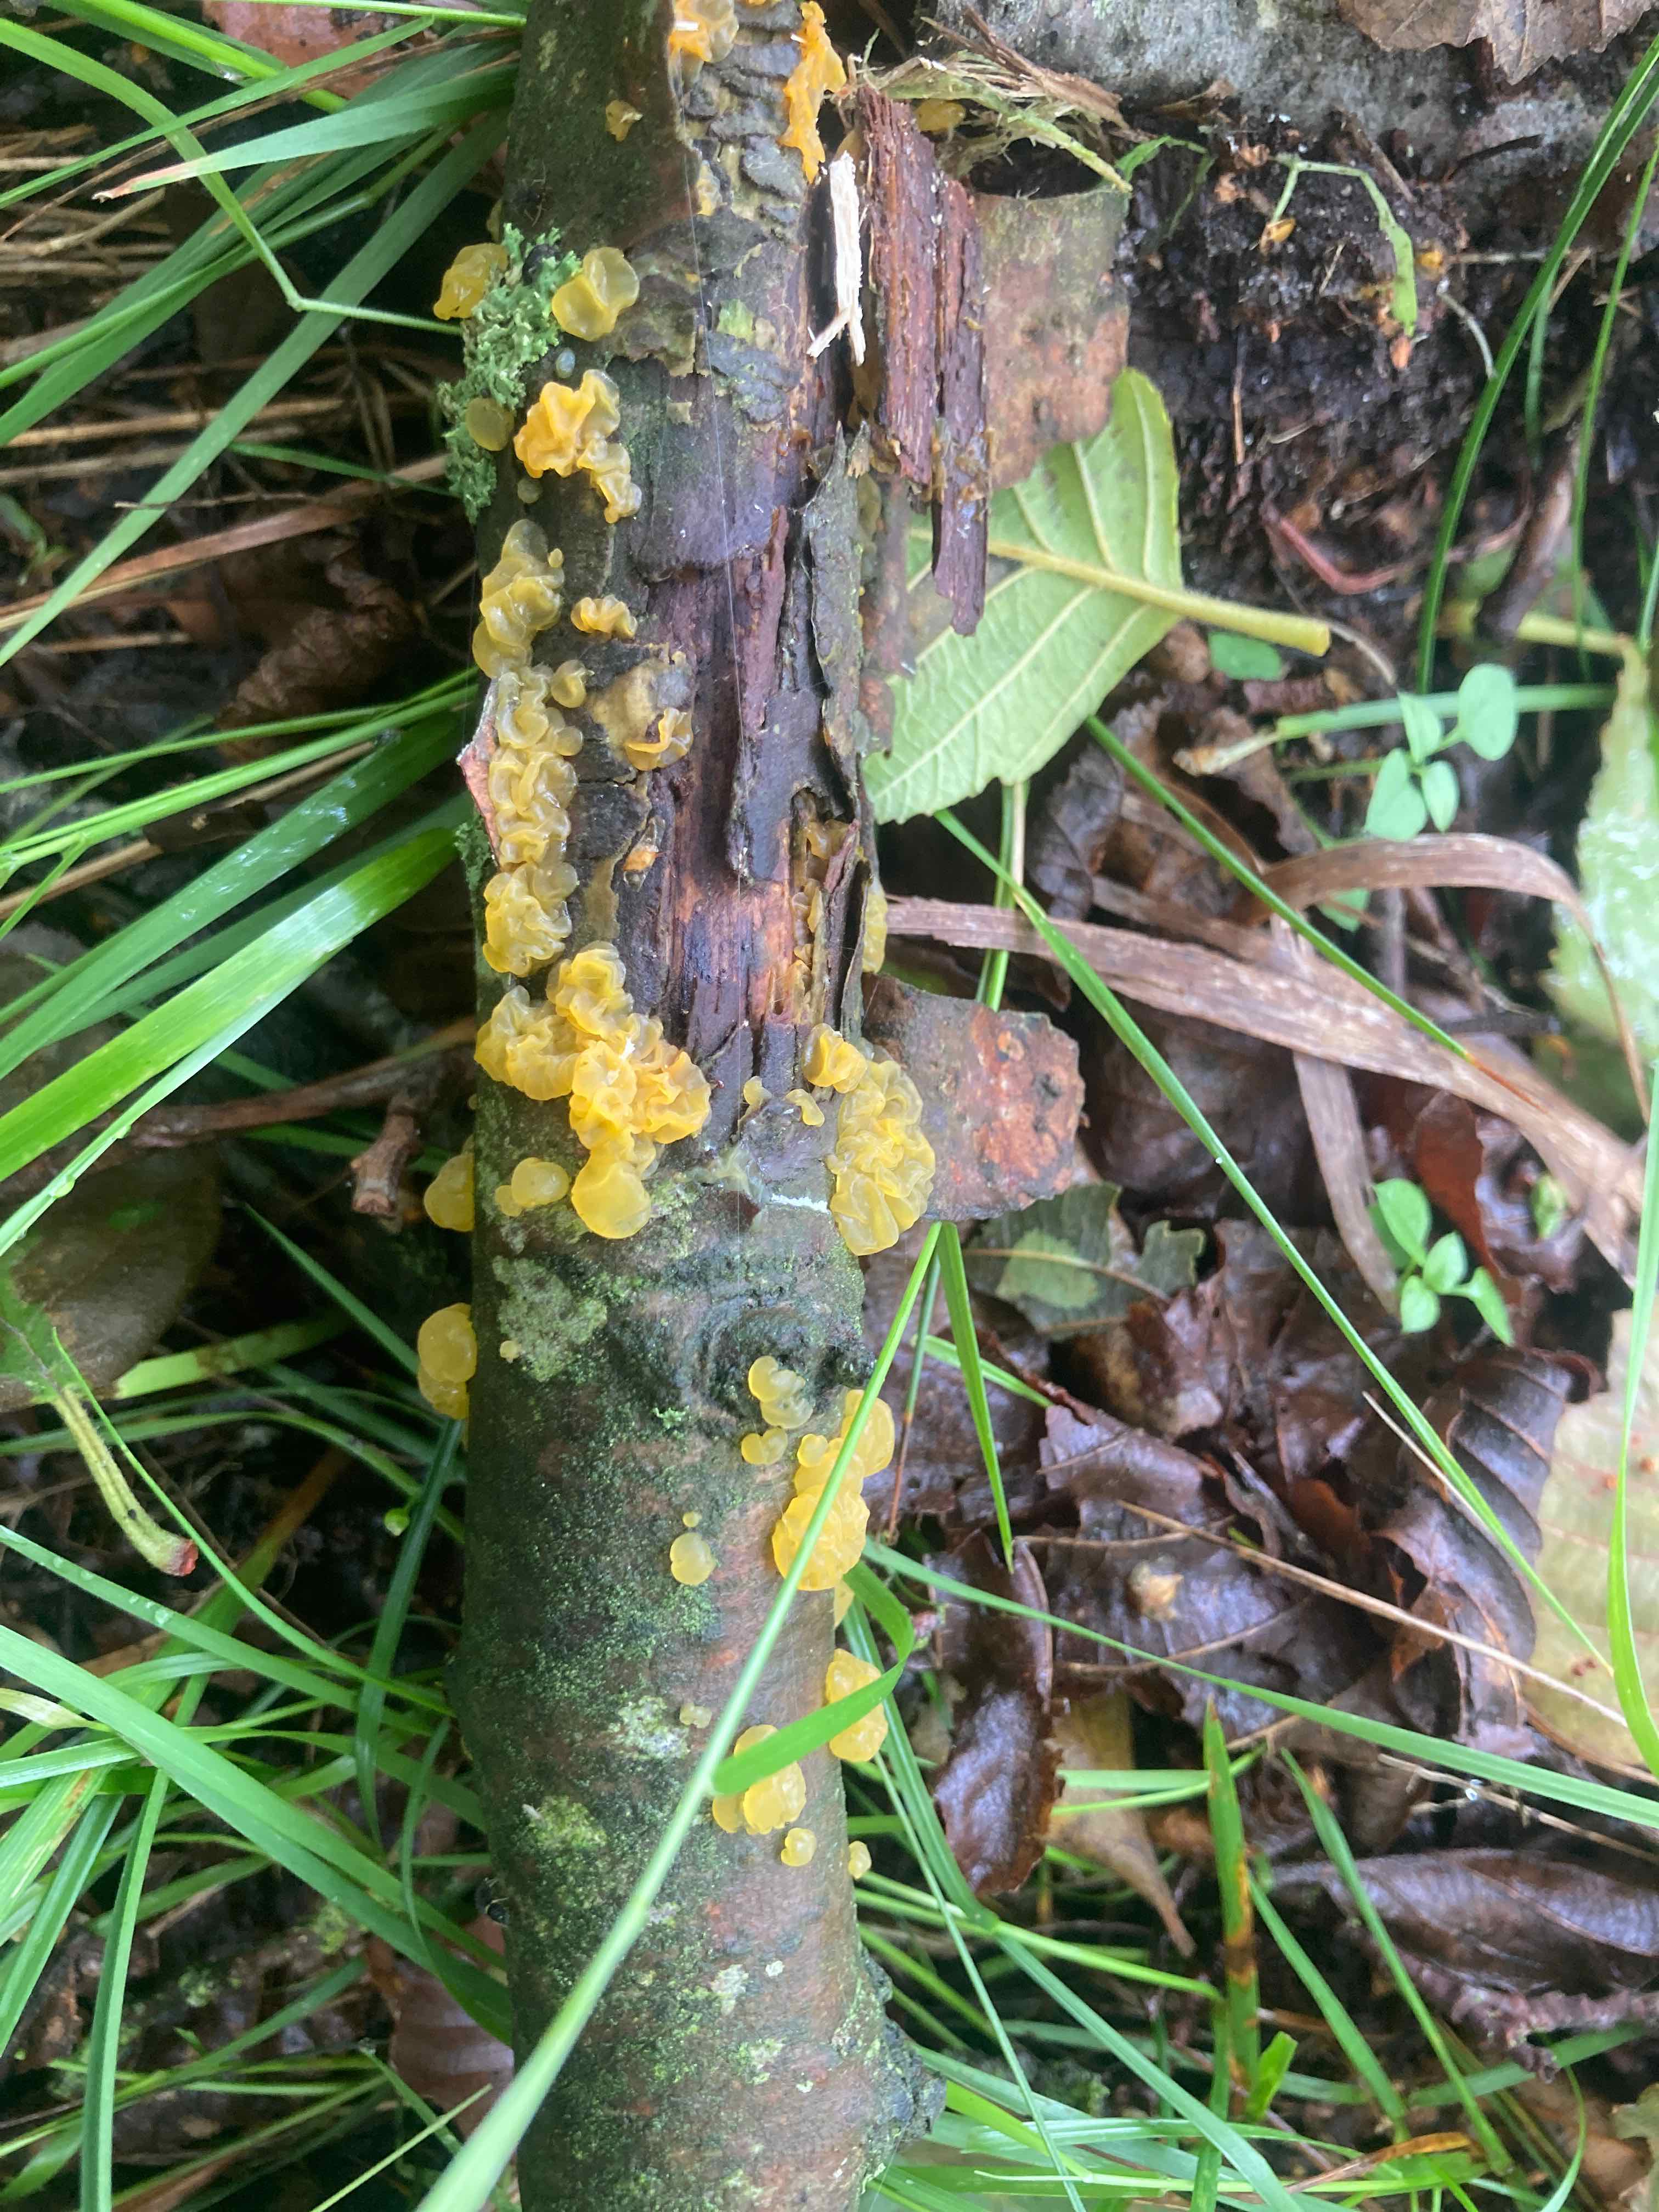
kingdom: Fungi
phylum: Basidiomycota
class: Dacrymycetes
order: Dacrymycetales
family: Dacrymycetaceae
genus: Dacrymyces
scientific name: Dacrymyces lacrymalis
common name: rynket tåresvamp
